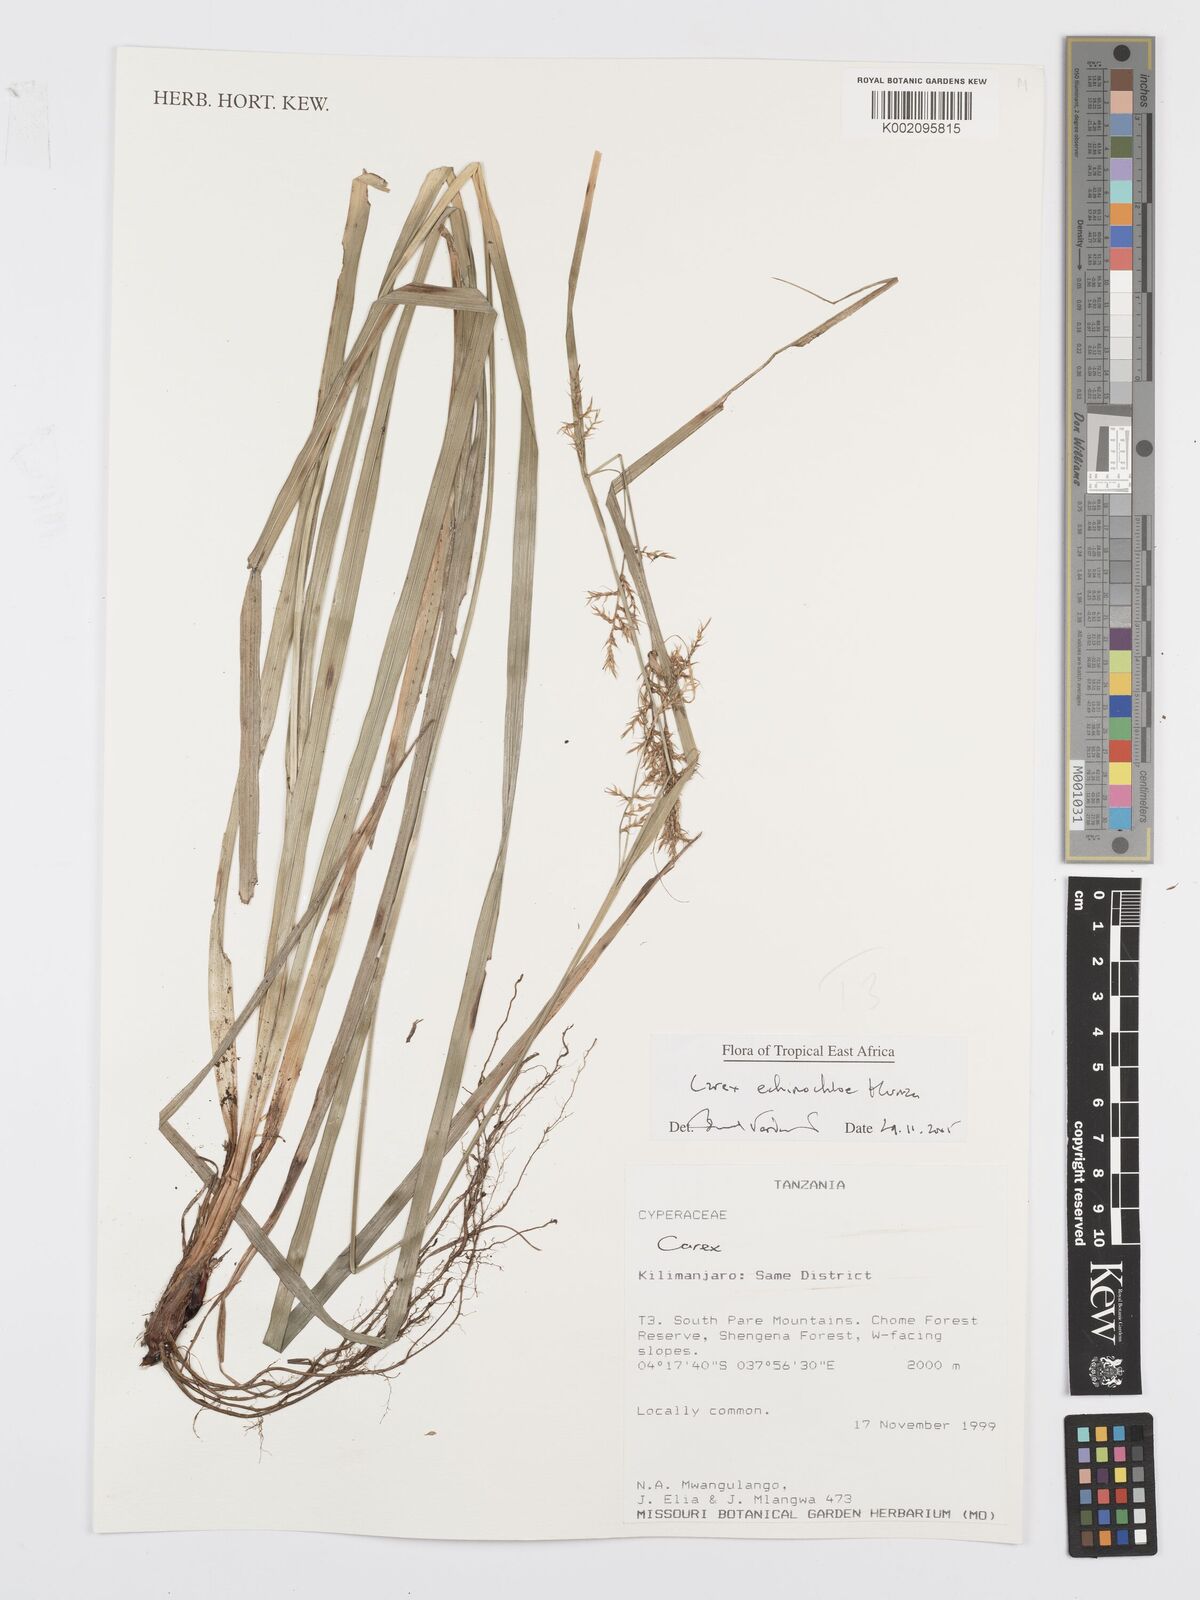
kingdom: Plantae
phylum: Tracheophyta
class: Liliopsida
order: Poales
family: Cyperaceae
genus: Carex
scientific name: Carex echinochloe
